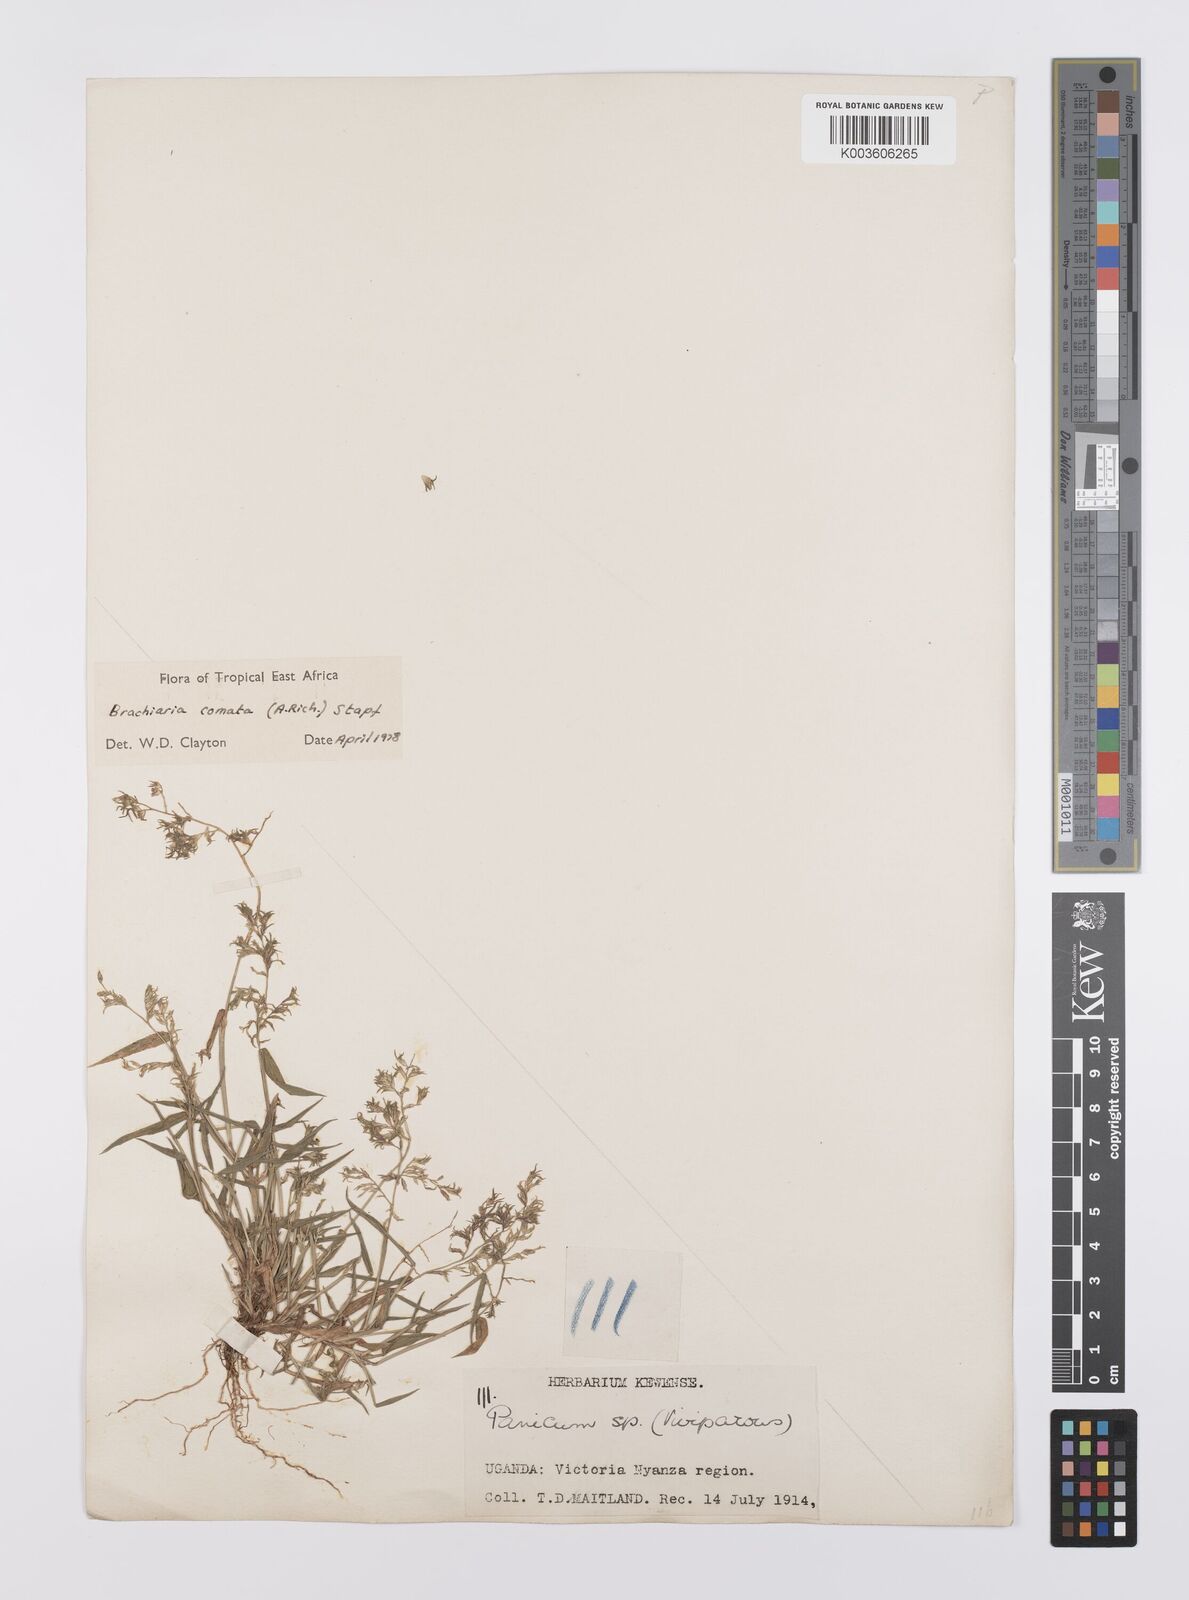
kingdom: Plantae
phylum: Tracheophyta
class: Liliopsida
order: Poales
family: Poaceae
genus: Urochloa
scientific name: Urochloa comata
